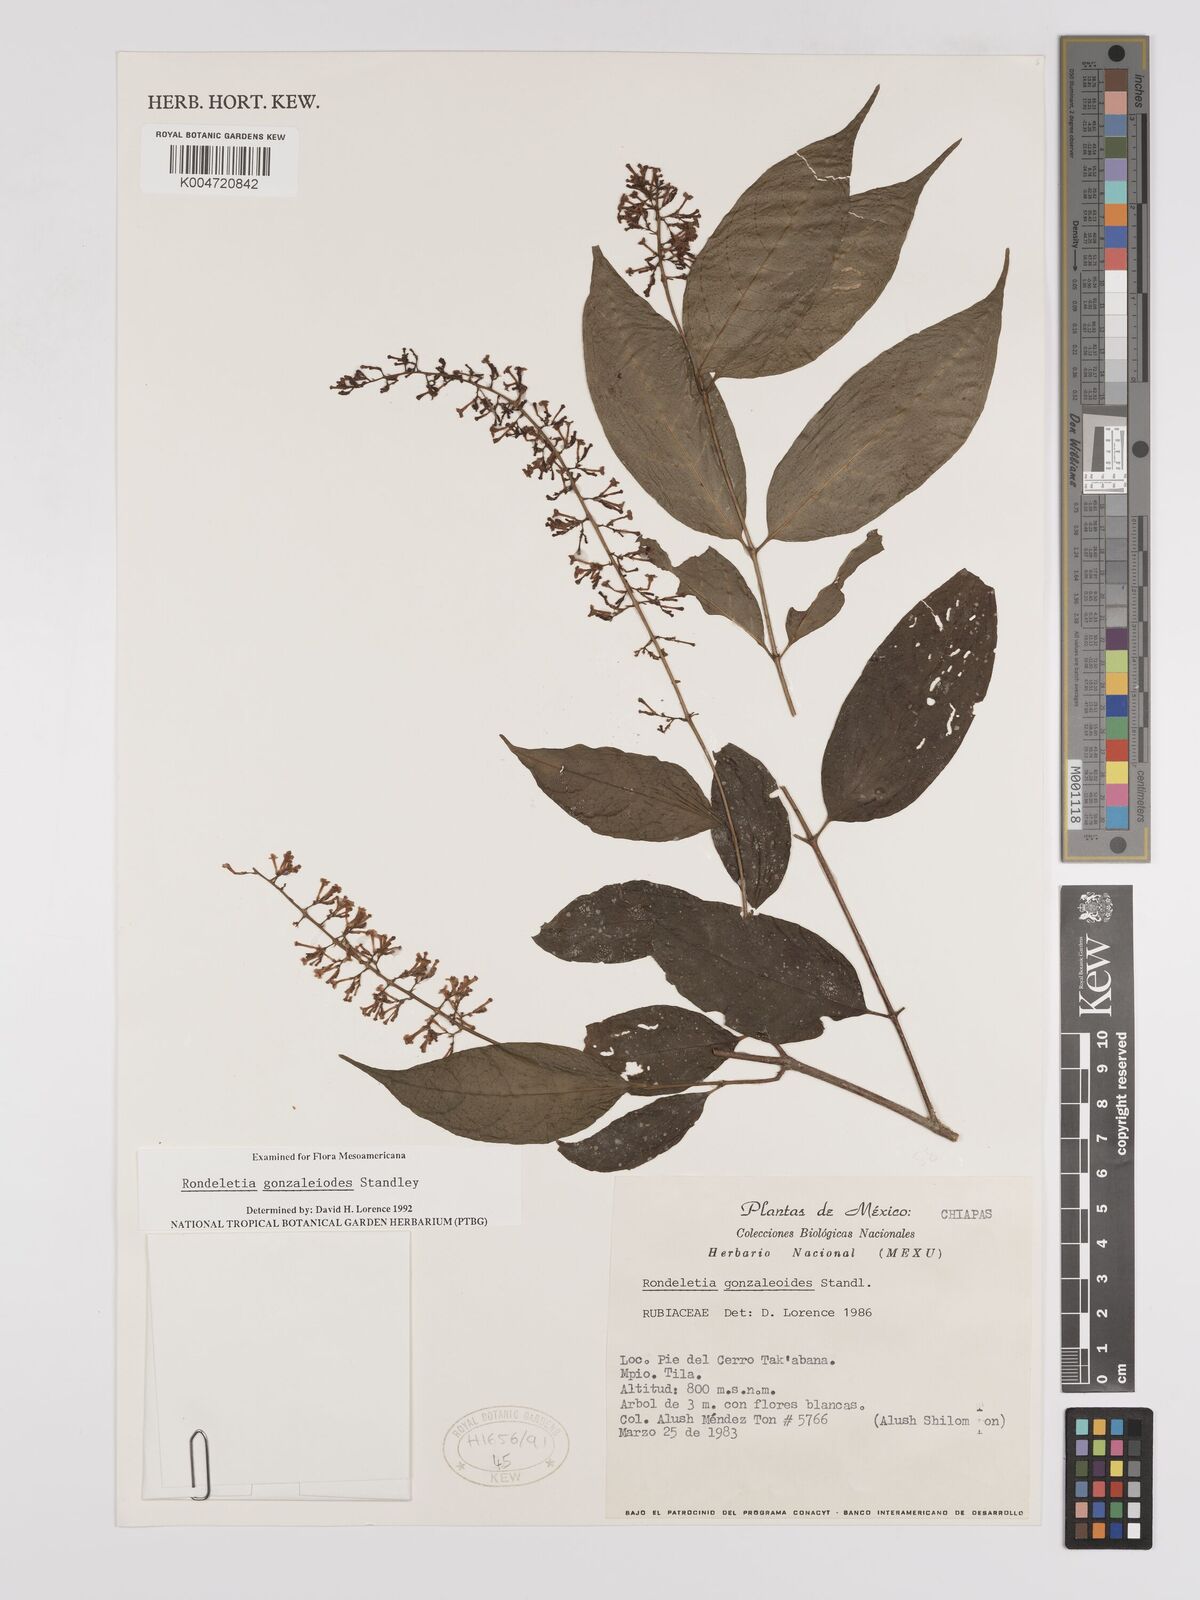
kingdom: Plantae
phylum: Tracheophyta
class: Magnoliopsida
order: Gentianales
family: Rubiaceae
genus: Arachnothryx
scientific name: Arachnothryx gonzaleoides
